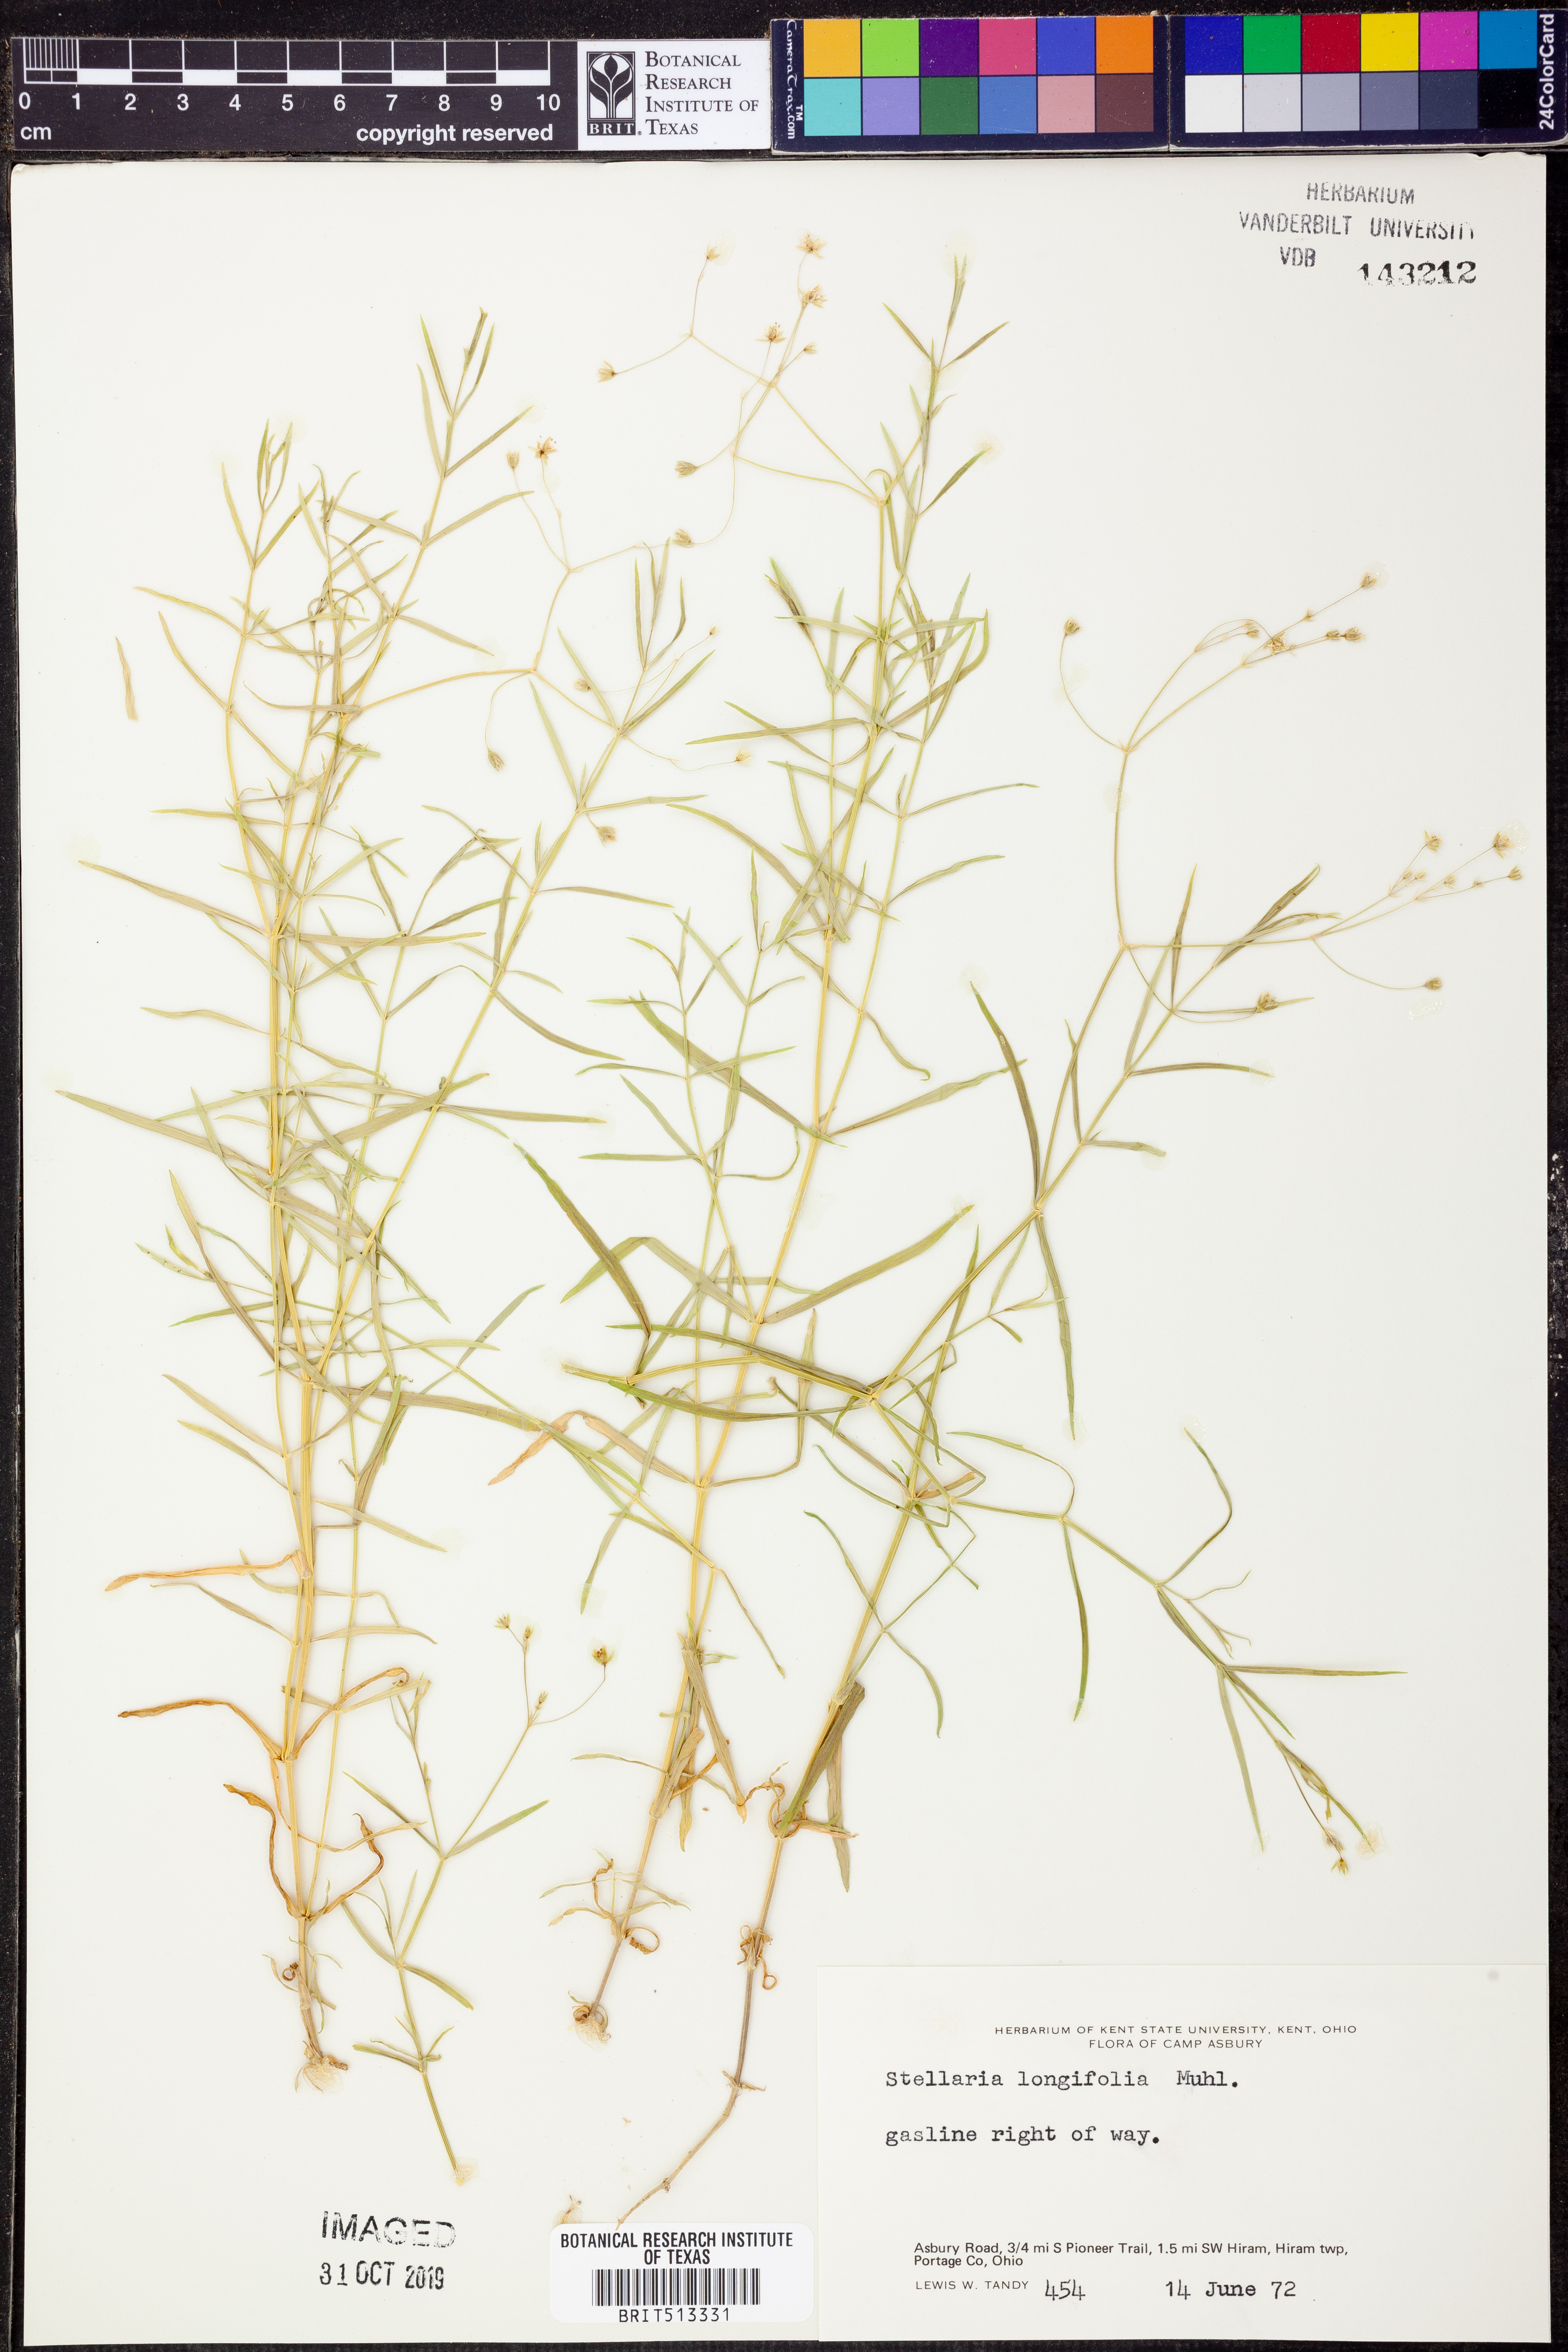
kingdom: Plantae
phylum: Tracheophyta
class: Magnoliopsida
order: Caryophyllales
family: Caryophyllaceae
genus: Stellaria
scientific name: Stellaria longifolia
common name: Long-leaved chickweed
